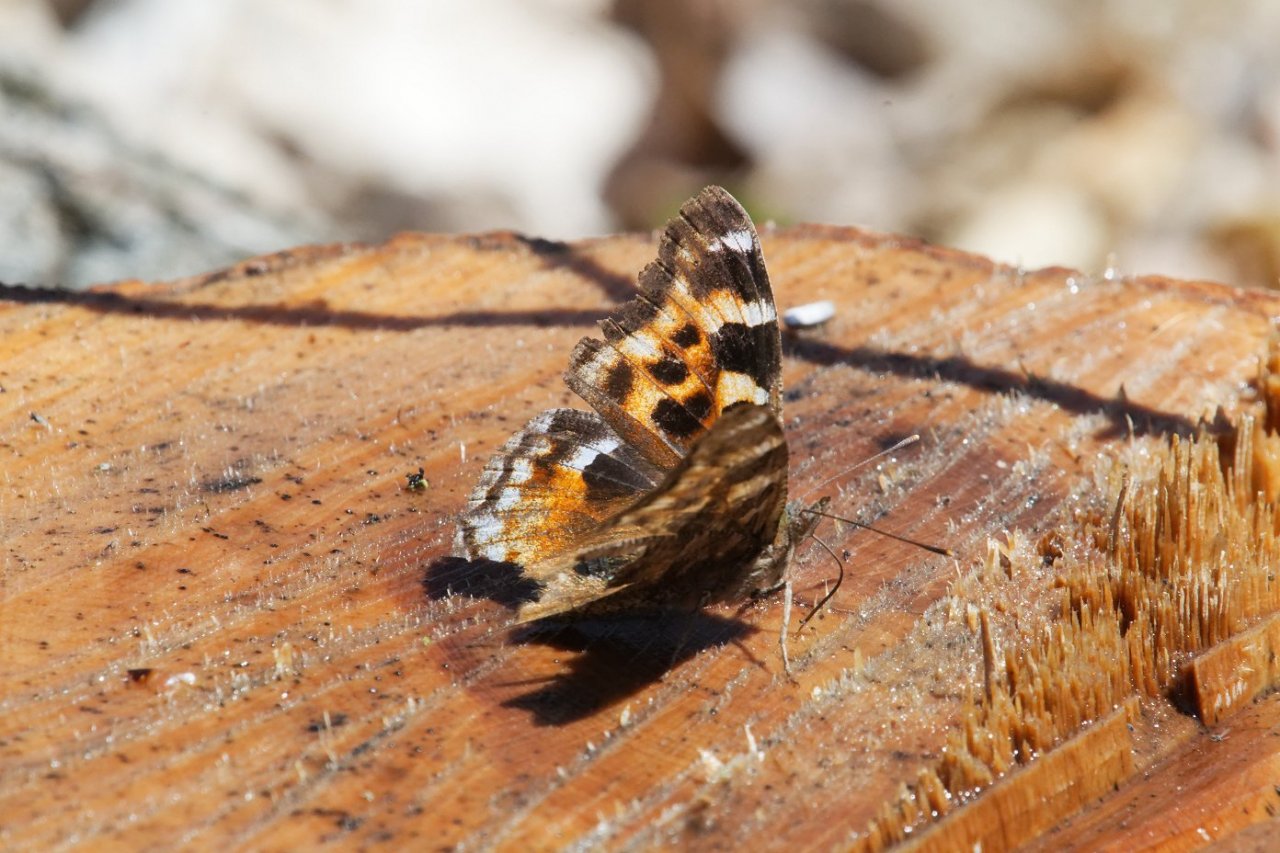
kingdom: Animalia
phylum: Arthropoda
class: Insecta
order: Lepidoptera
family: Nymphalidae
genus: Polygonia
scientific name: Polygonia vaualbum
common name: Compton Tortoiseshell
